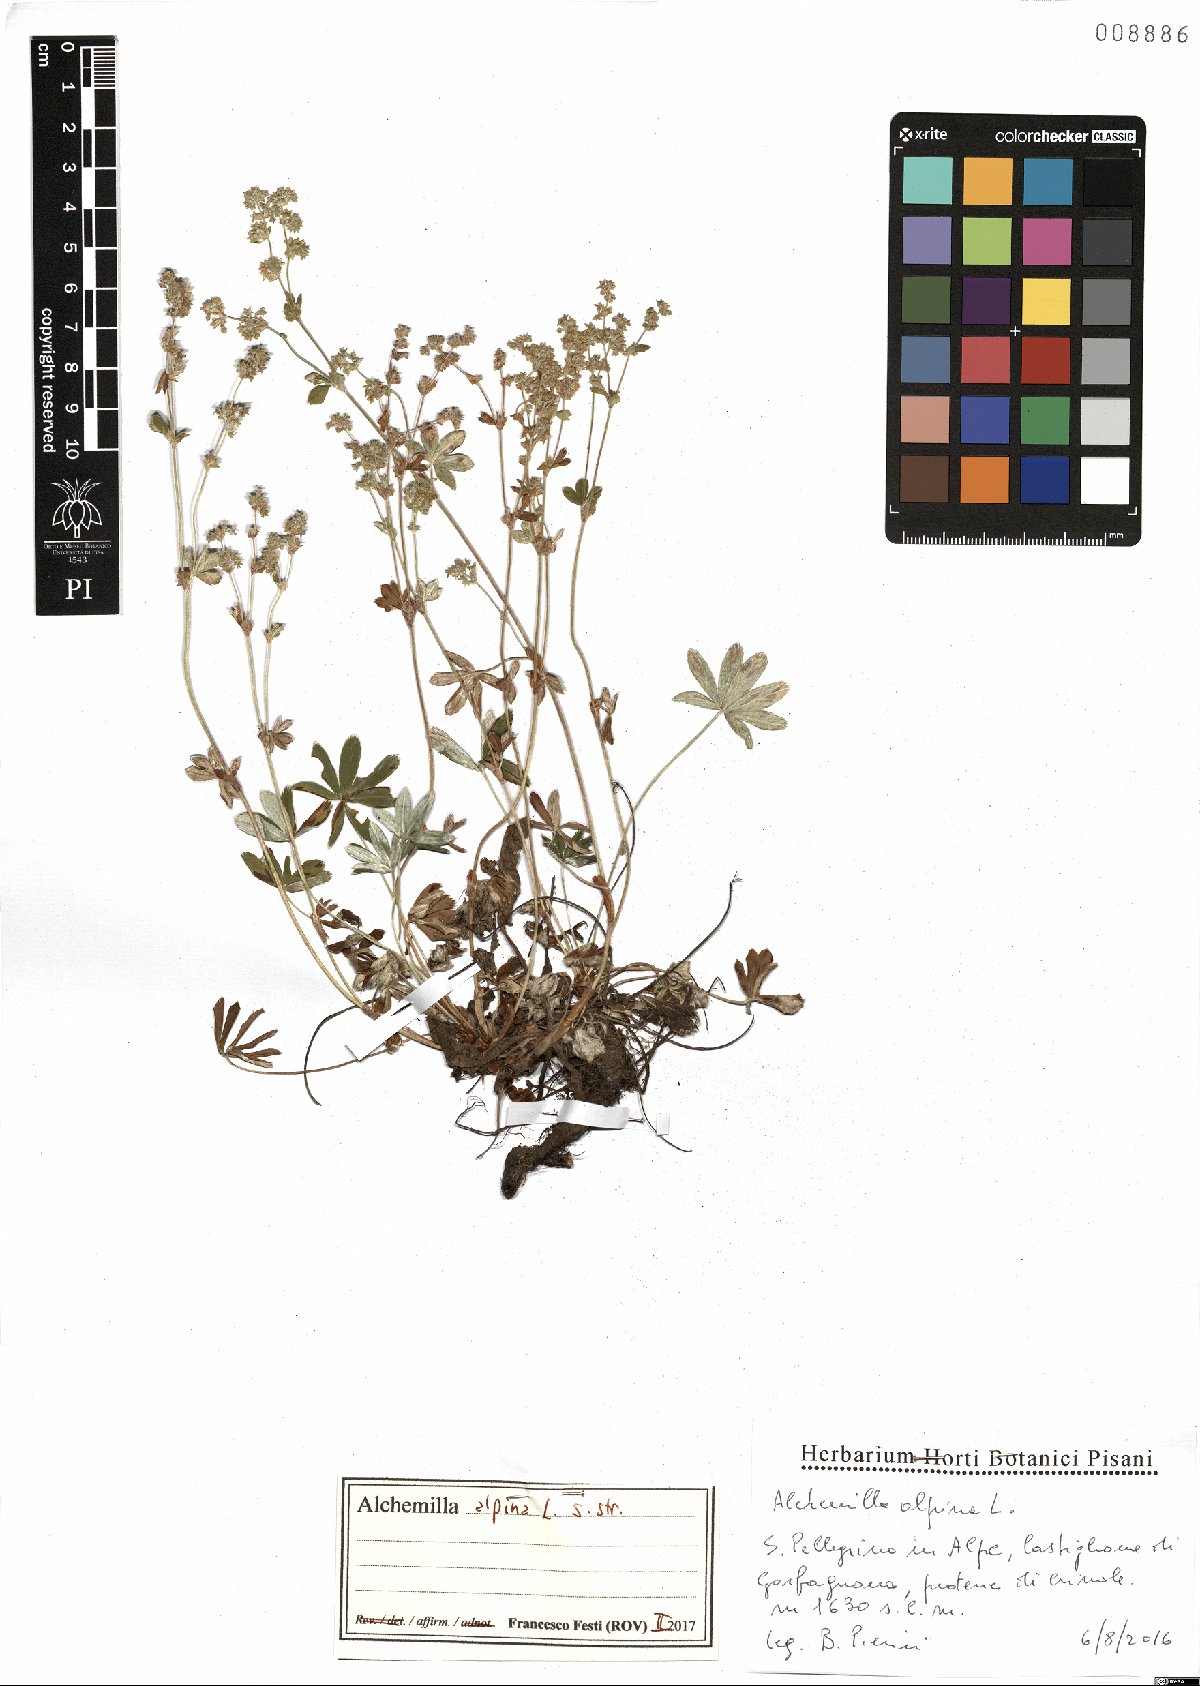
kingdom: Plantae
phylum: Tracheophyta
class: Magnoliopsida
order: Rosales
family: Rosaceae
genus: Alchemilla
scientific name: Alchemilla alpina
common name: Alpine lady's-mantle
